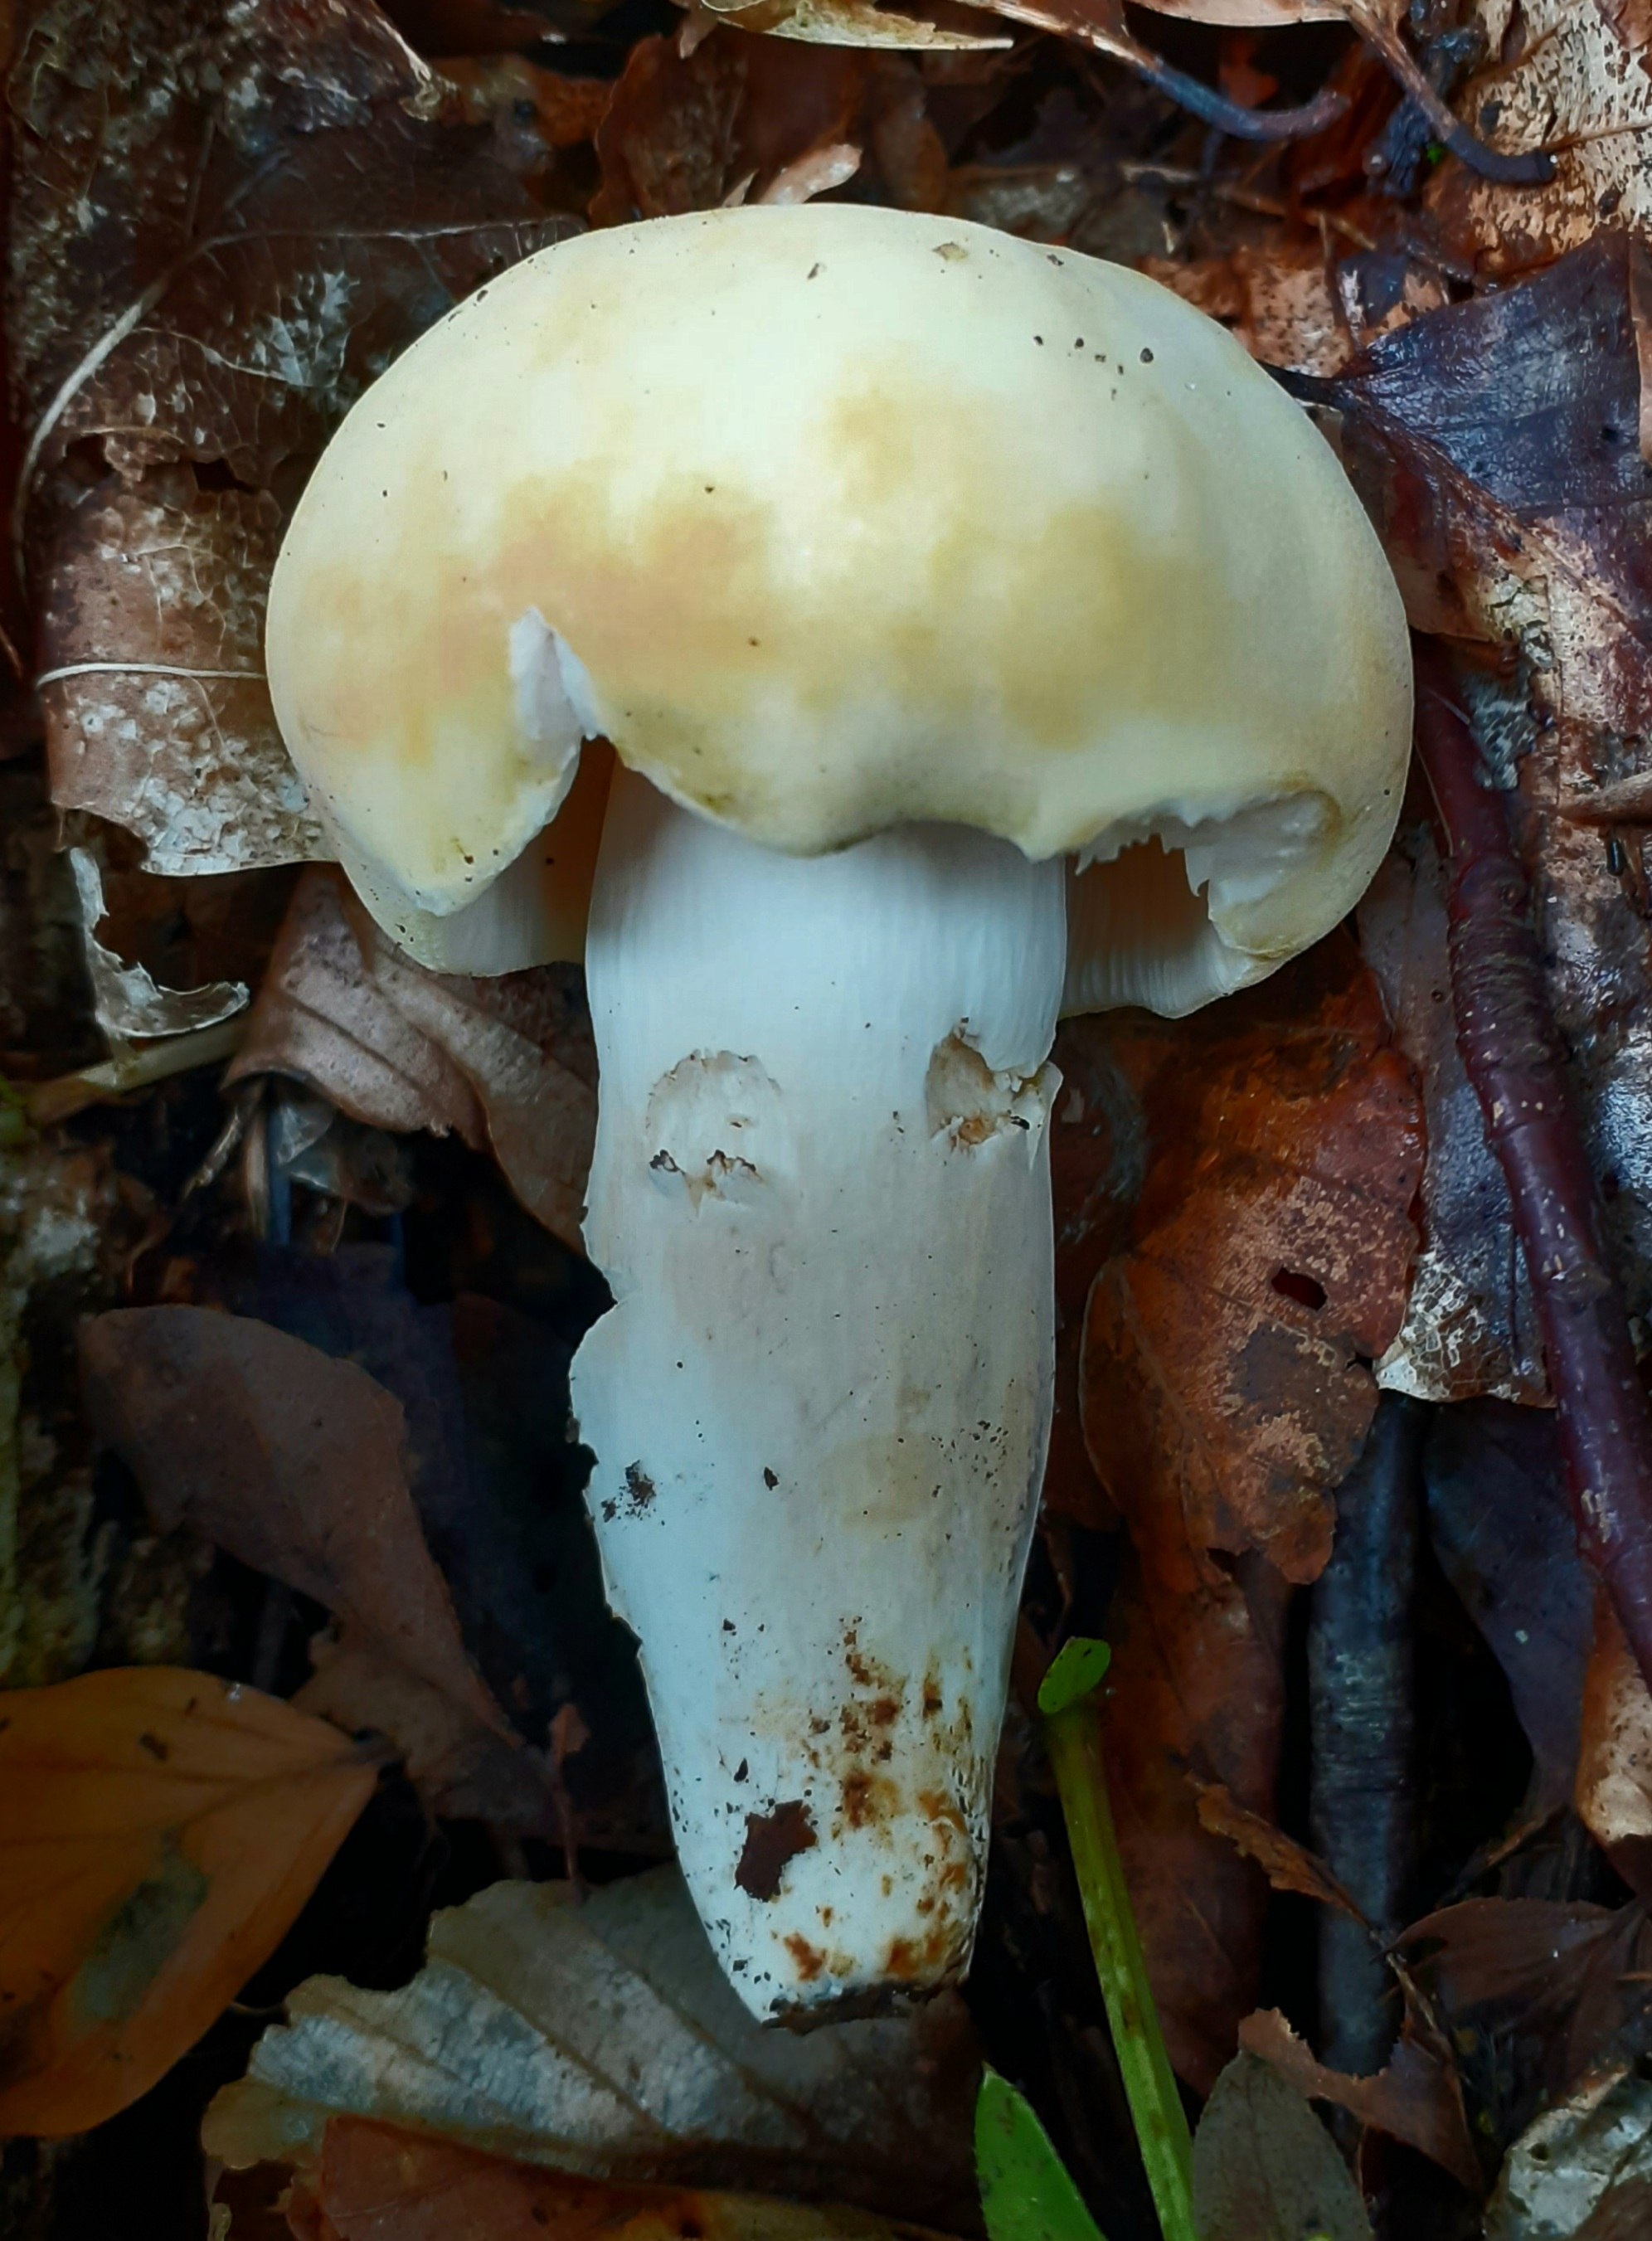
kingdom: Fungi
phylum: Basidiomycota
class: Agaricomycetes
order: Russulales
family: Russulaceae
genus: Russula
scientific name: Russula violeipes
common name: ferskengul skørhat
